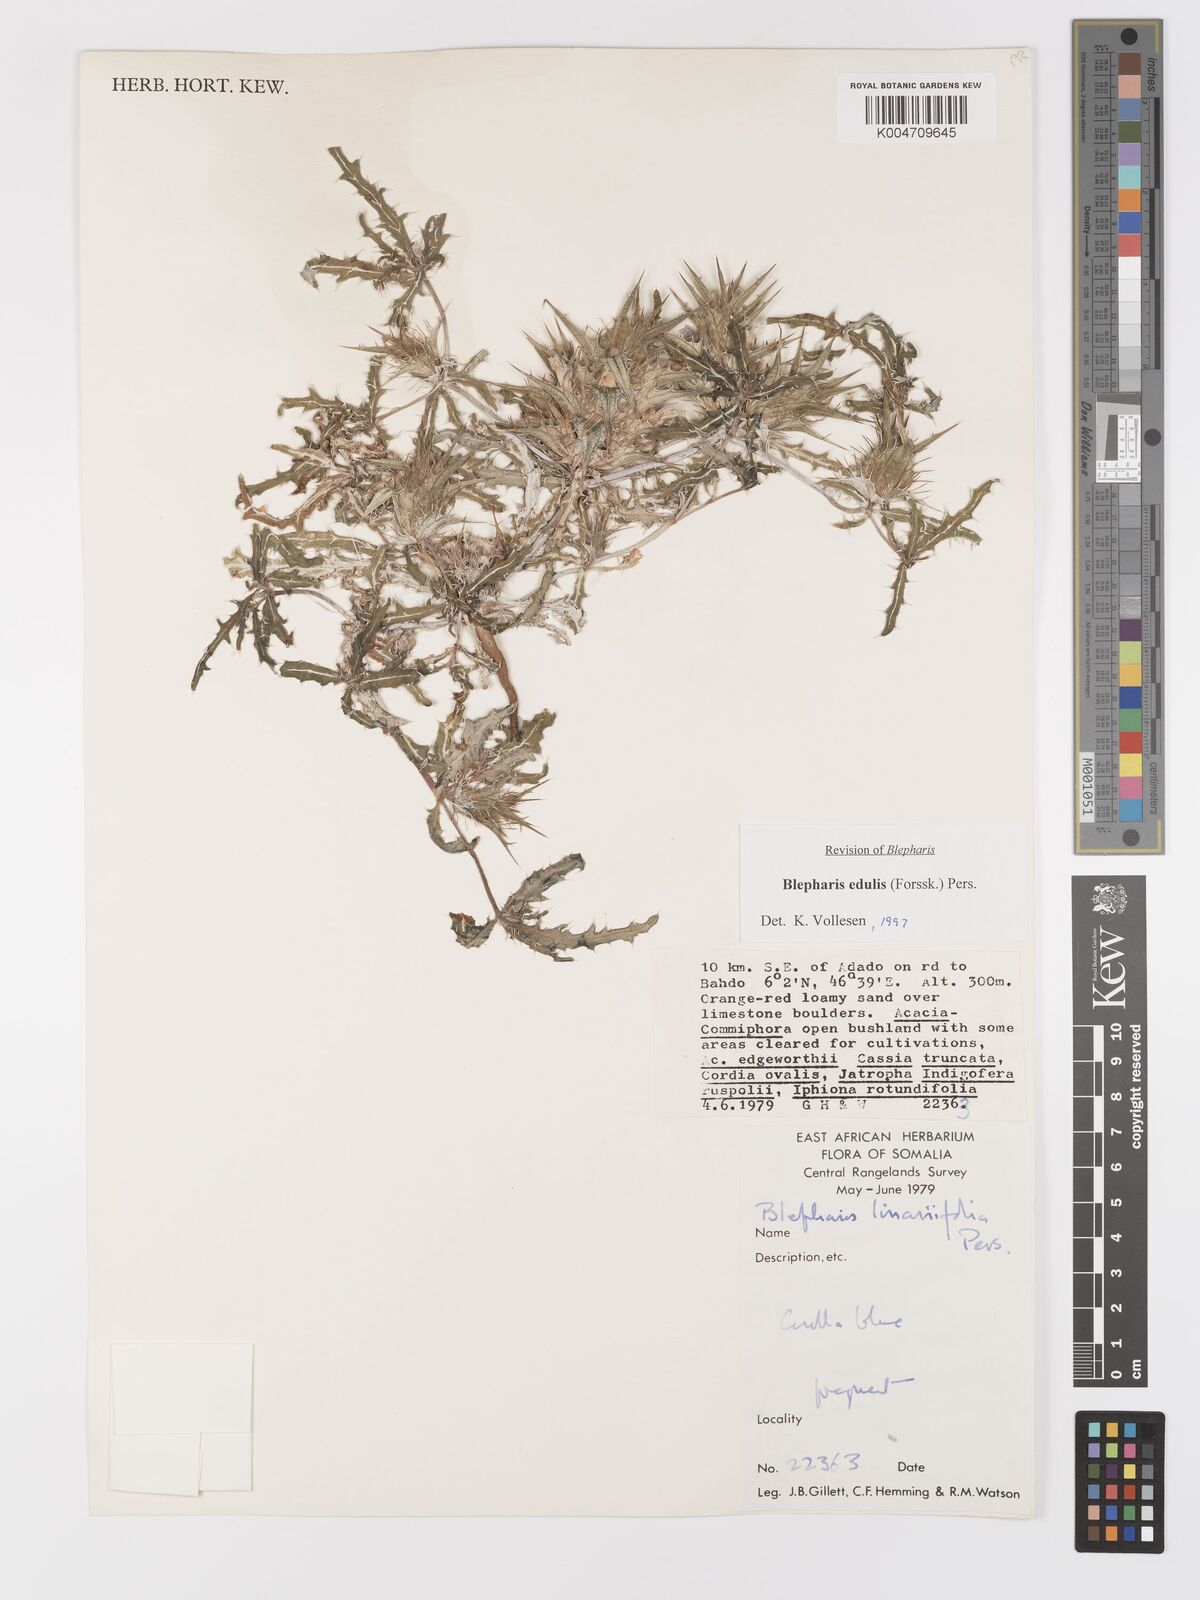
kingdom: Plantae
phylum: Tracheophyta
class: Magnoliopsida
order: Lamiales
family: Acanthaceae
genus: Blepharis
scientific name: Blepharis edulis
